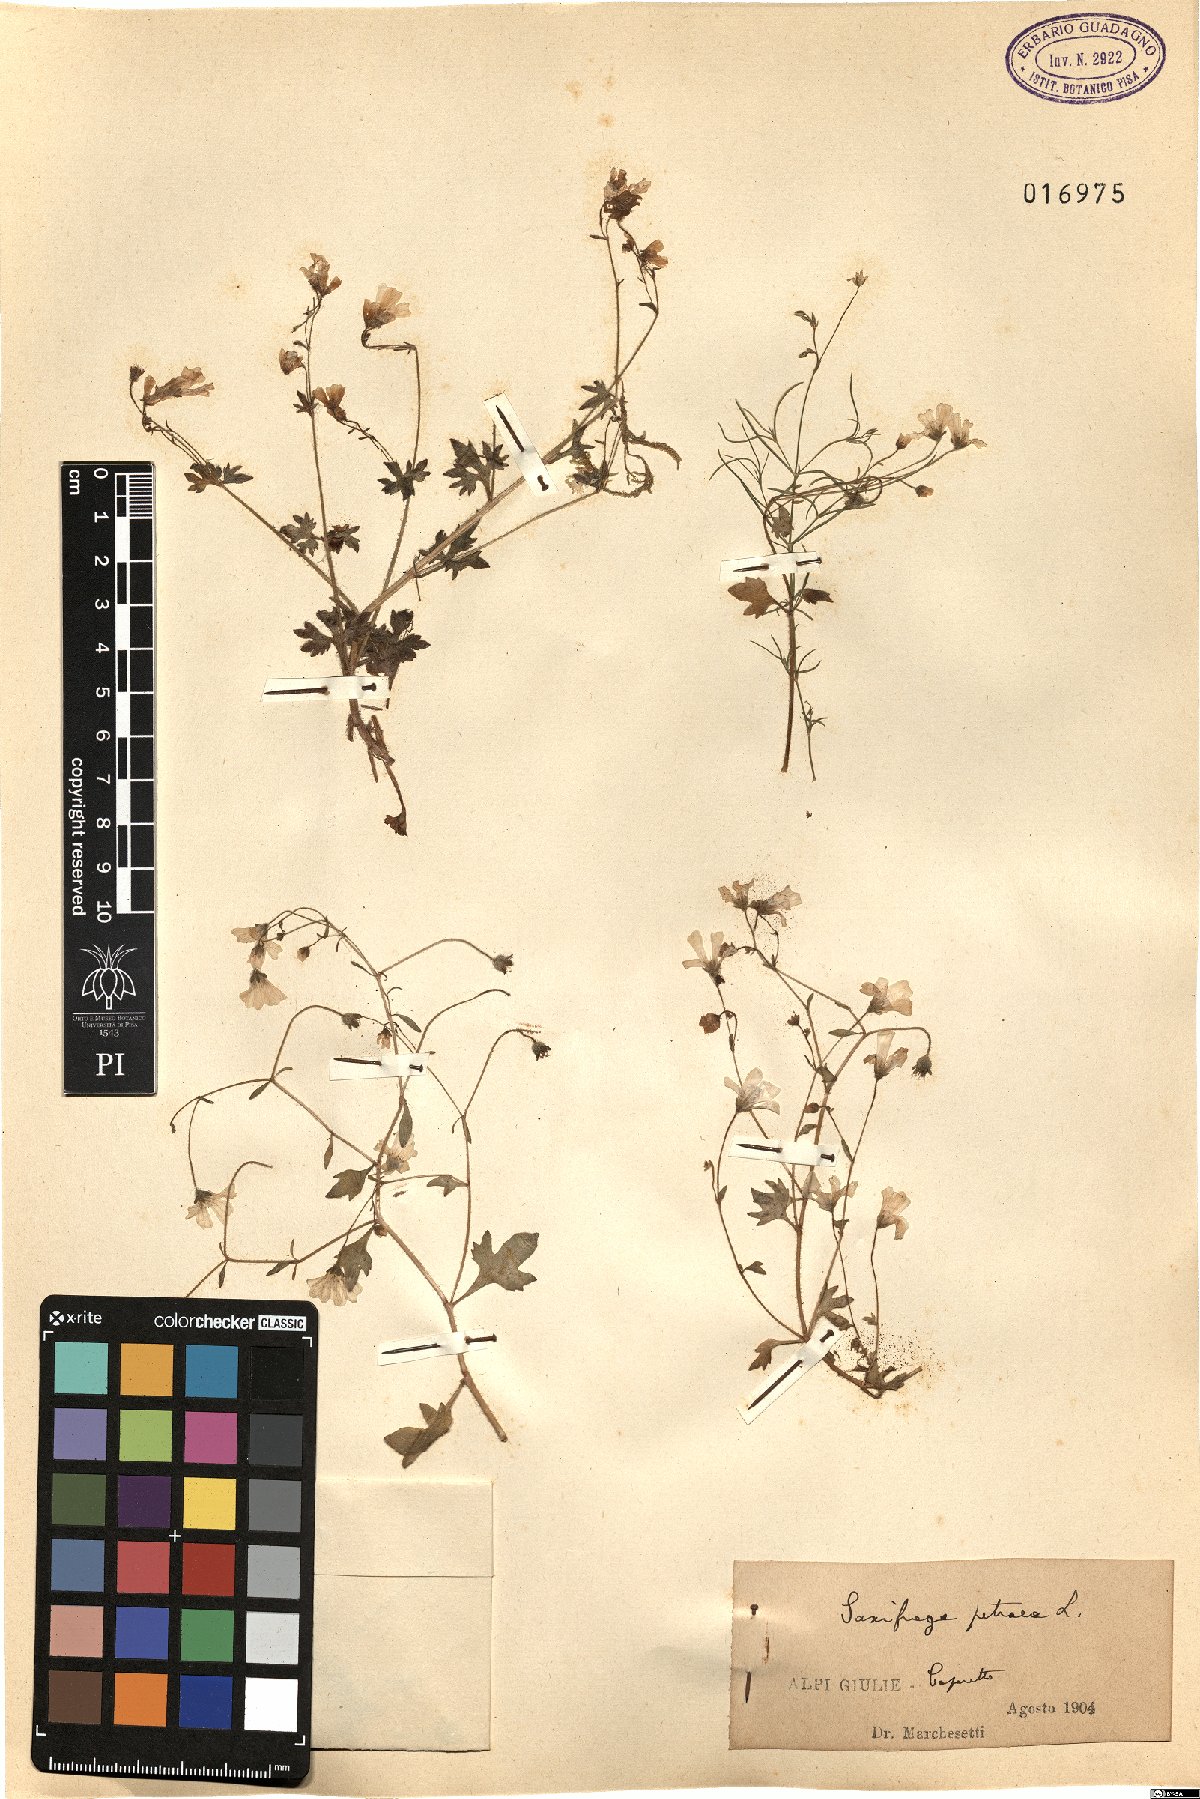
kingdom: Plantae
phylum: Tracheophyta
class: Magnoliopsida
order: Saxifragales
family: Saxifragaceae
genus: Saxifraga
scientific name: Saxifraga petraea
